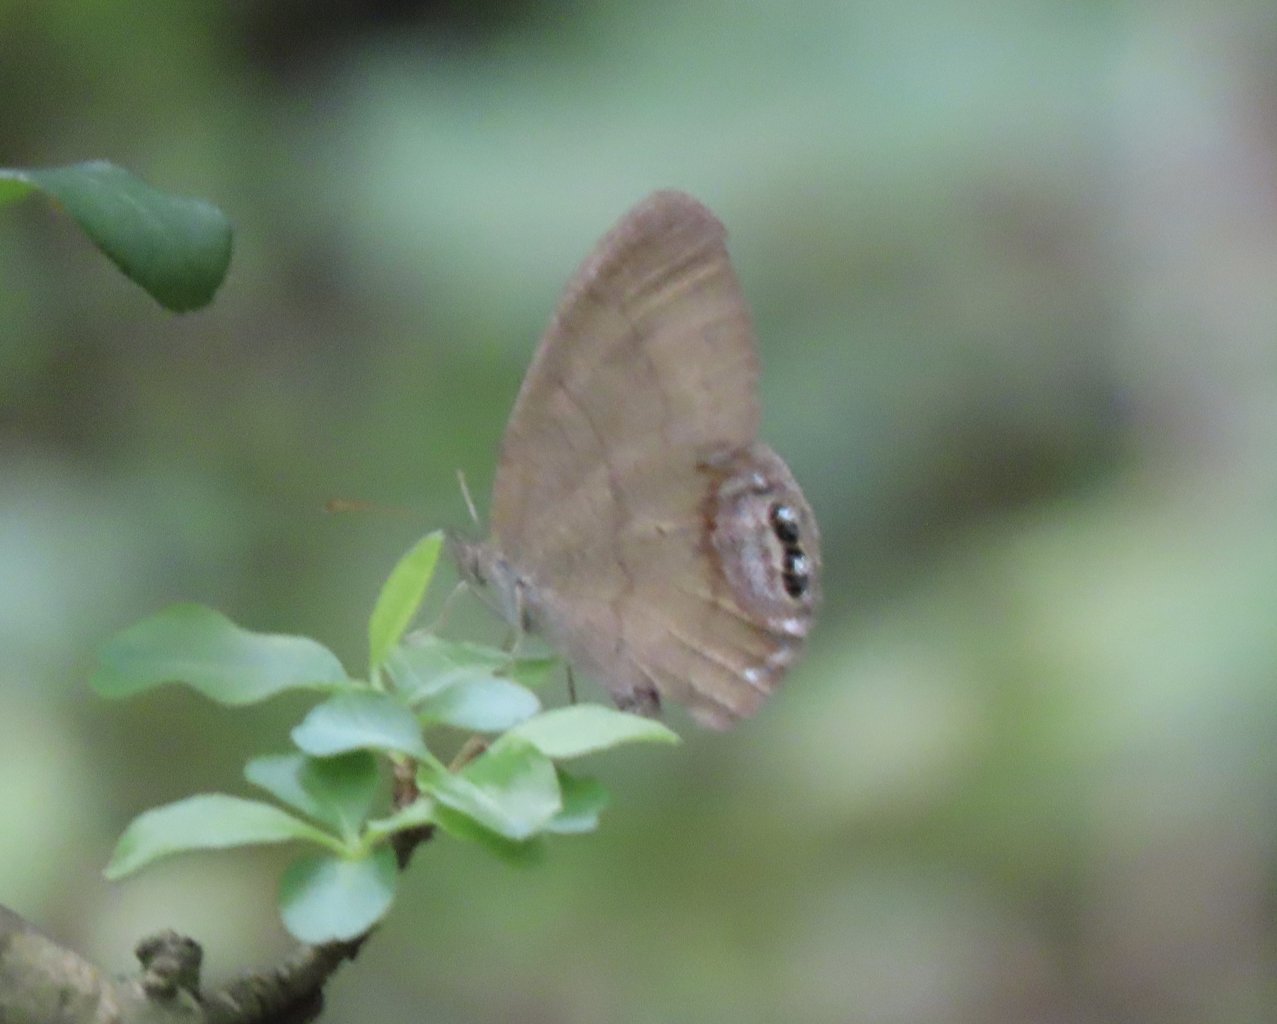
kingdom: Animalia
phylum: Arthropoda
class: Insecta
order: Lepidoptera
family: Nymphalidae
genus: Euptychia
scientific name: Euptychia cornelius
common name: Gemmed Satyr
